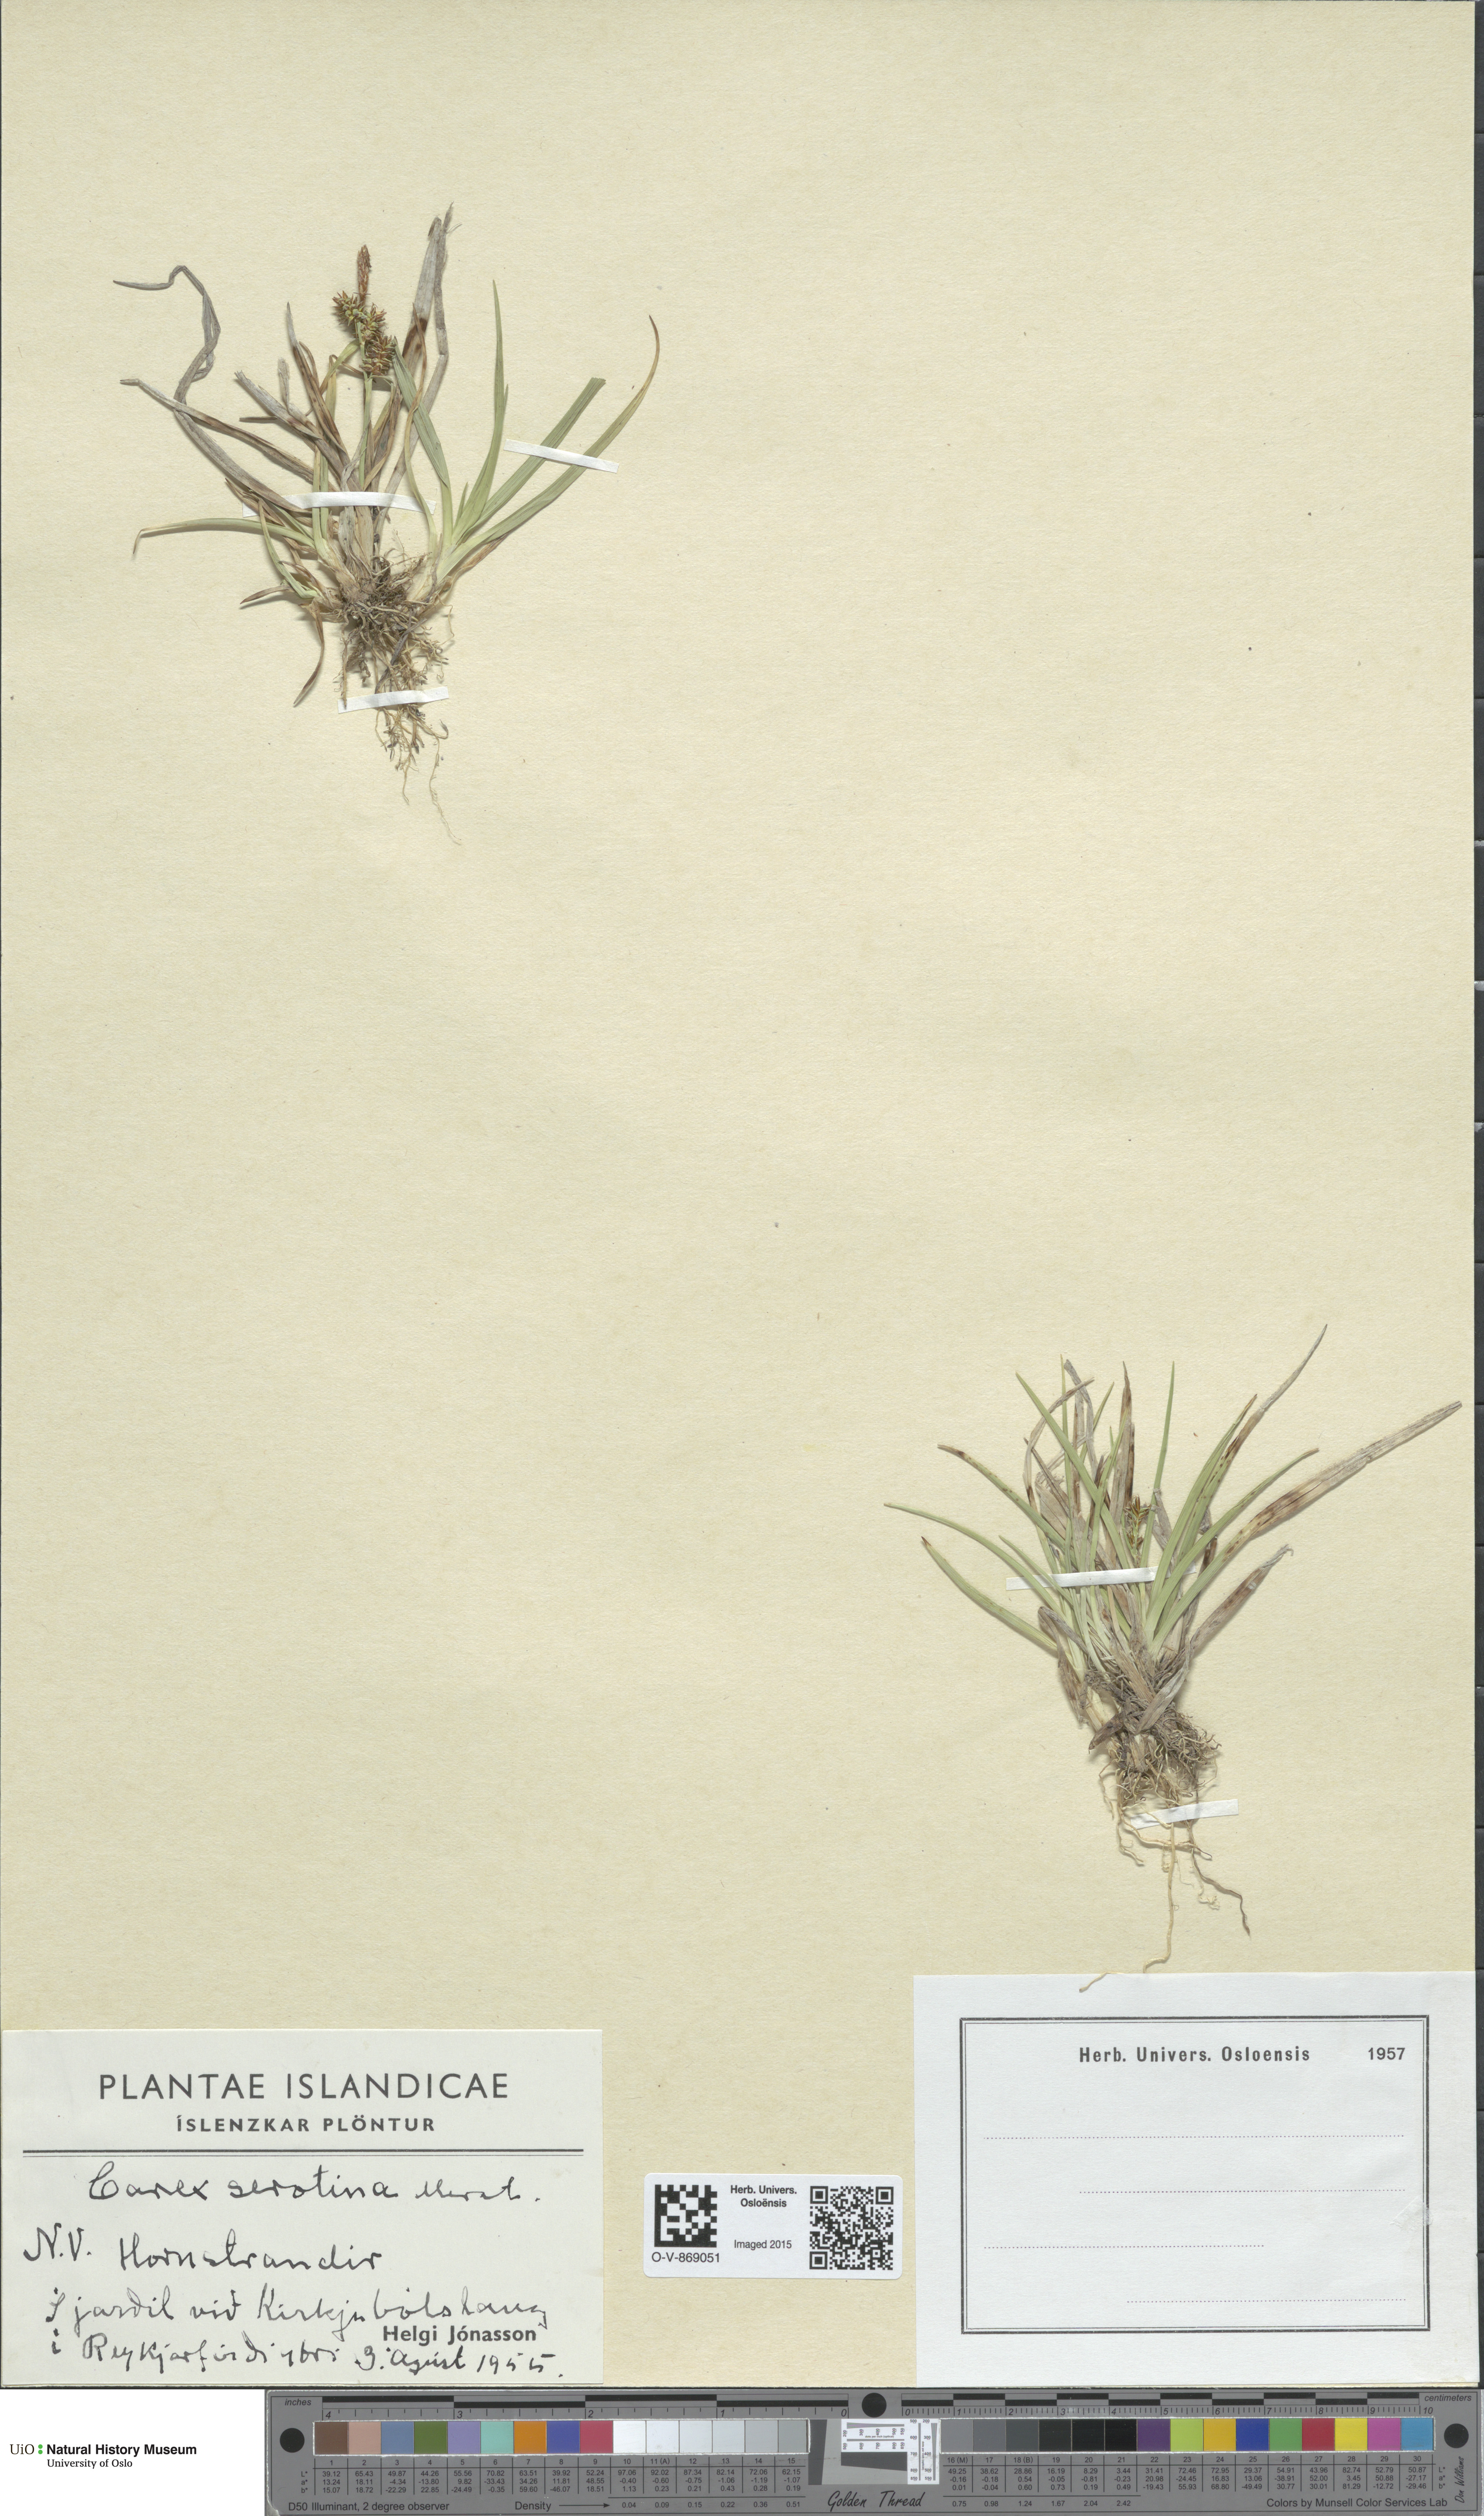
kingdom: Plantae
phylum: Tracheophyta
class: Liliopsida
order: Poales
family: Cyperaceae
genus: Carex
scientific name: Carex oederi
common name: Common & small-fruited yellow-sedge
